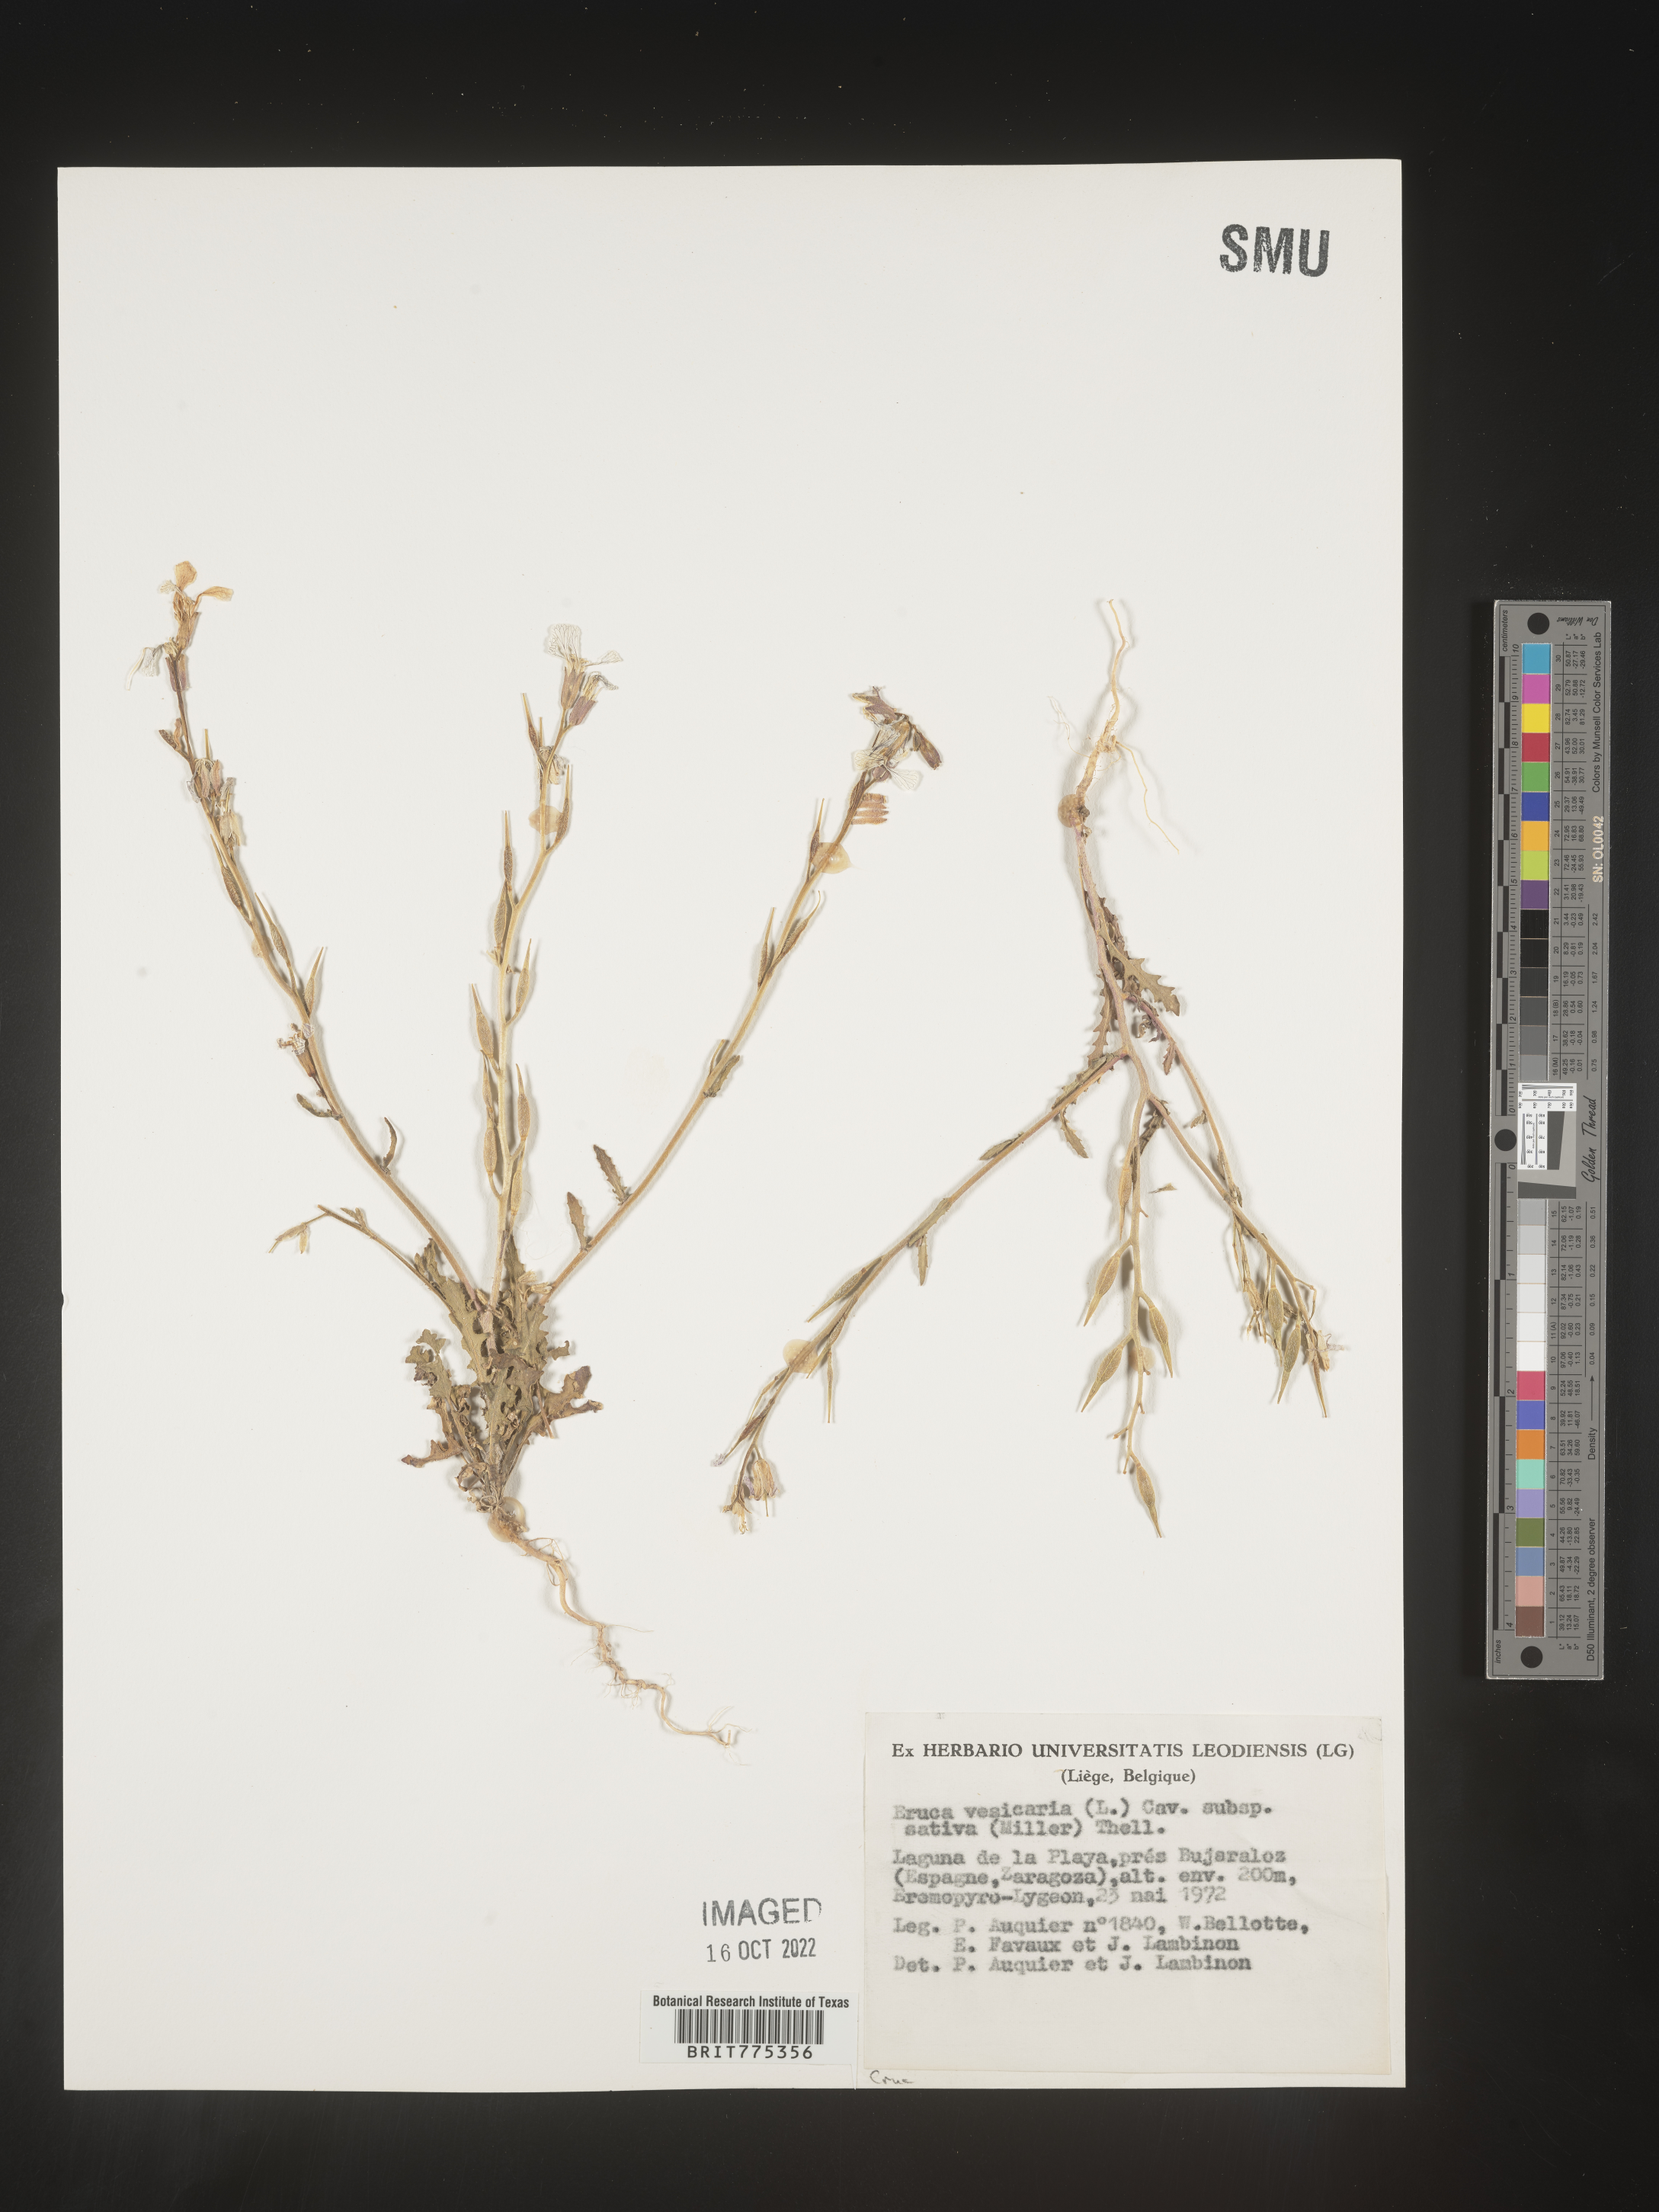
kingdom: Plantae
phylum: Tracheophyta
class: Magnoliopsida
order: Brassicales
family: Brassicaceae
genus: Eruca
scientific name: Eruca
